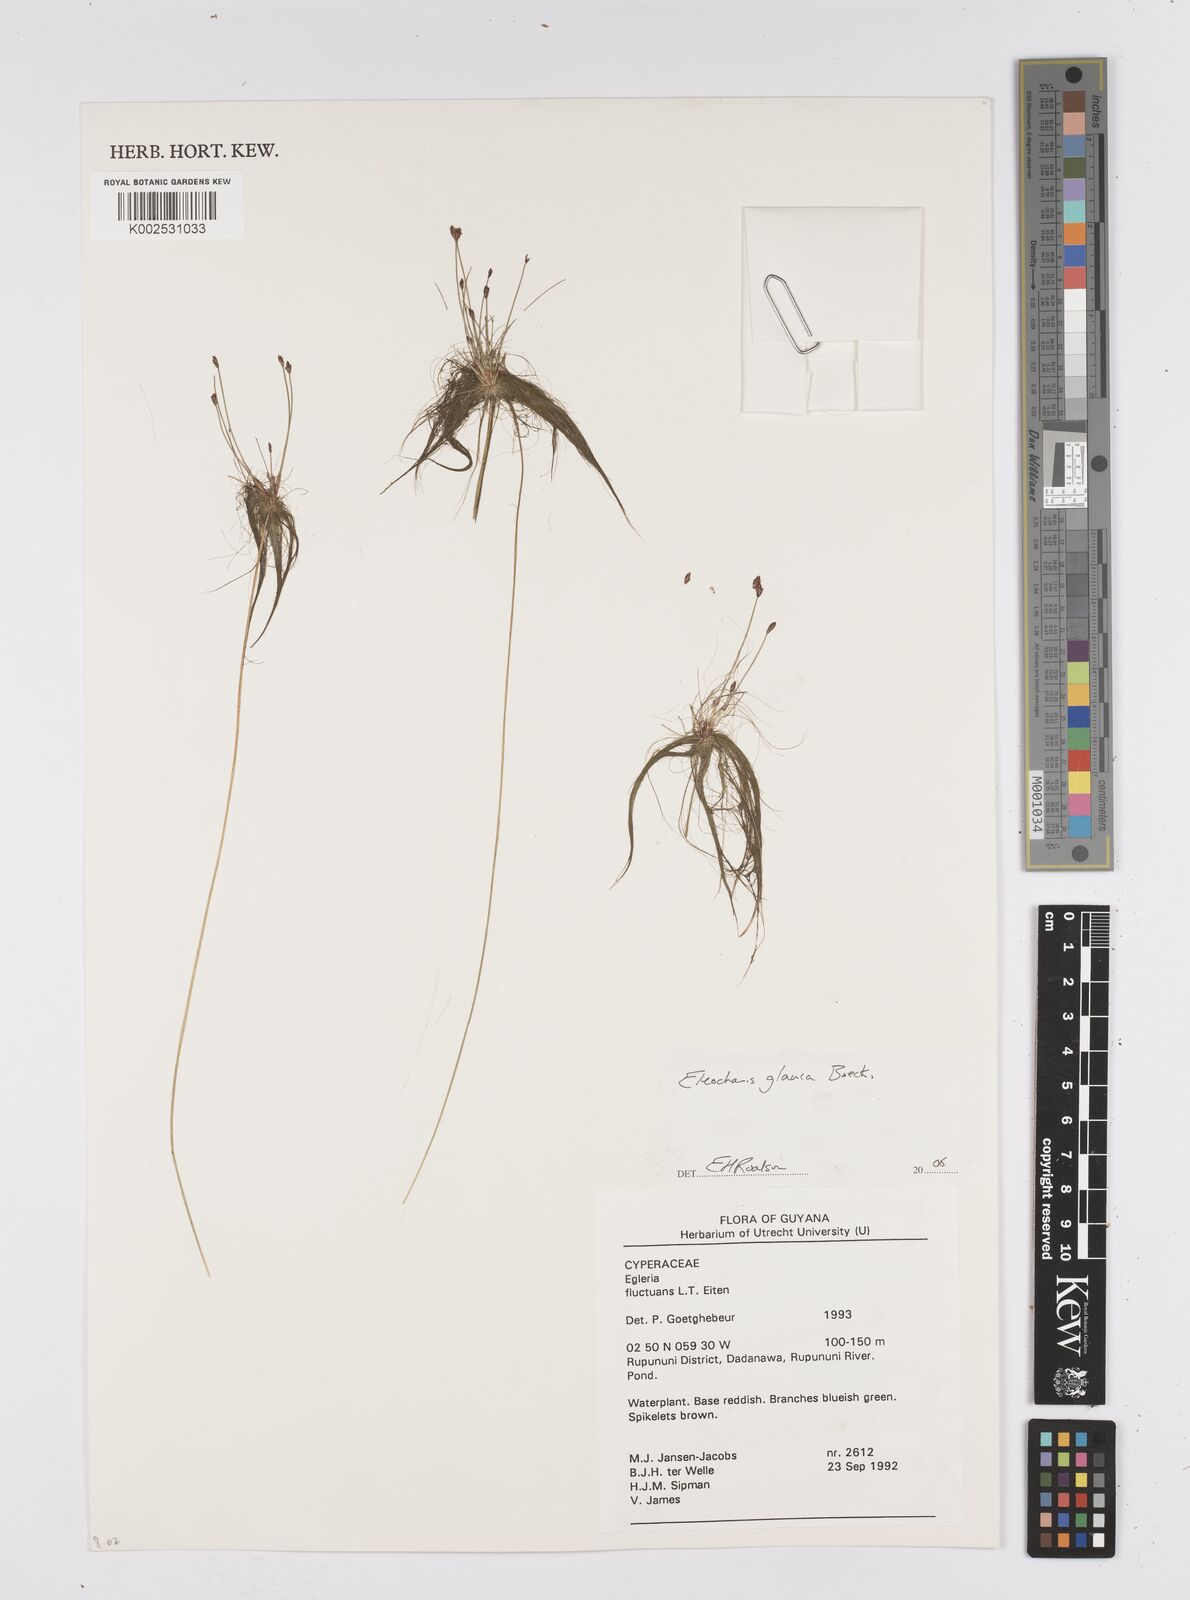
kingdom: Plantae
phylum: Tracheophyta
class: Liliopsida
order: Poales
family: Cyperaceae
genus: Eleocharis
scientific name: Eleocharis glauca
